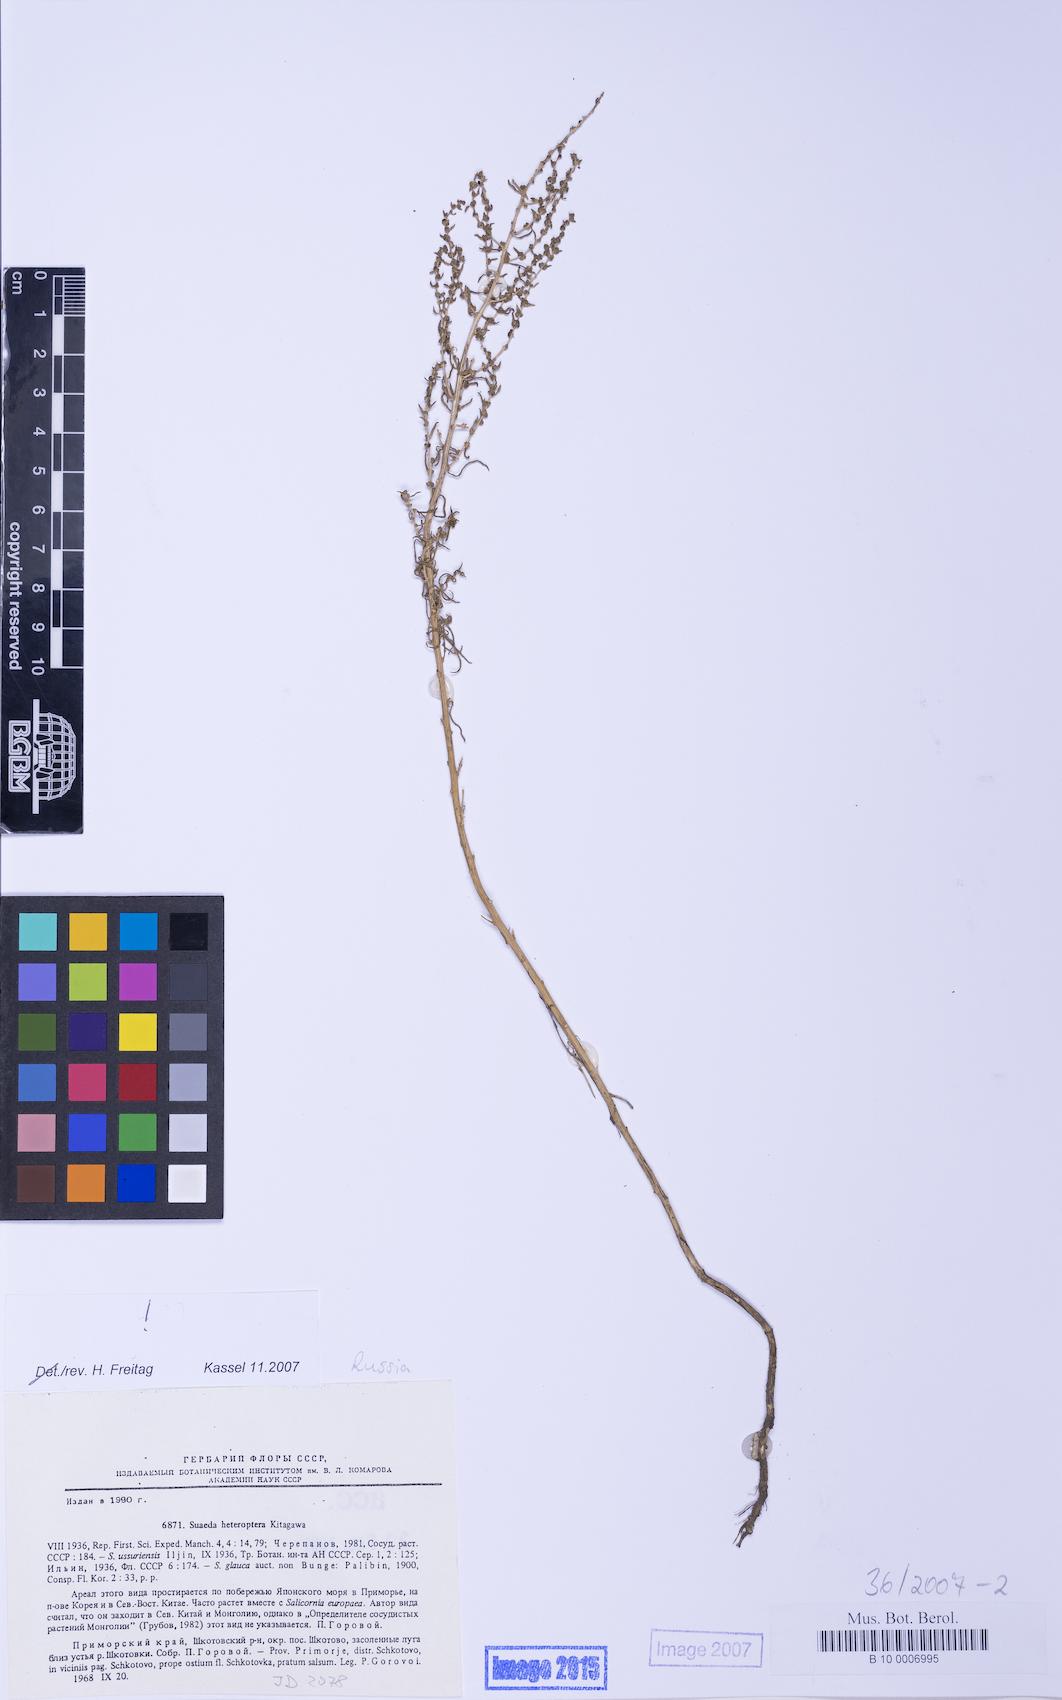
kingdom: Plantae
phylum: Tracheophyta
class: Magnoliopsida
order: Caryophyllales
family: Amaranthaceae
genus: Suaeda
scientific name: Suaeda salsa
